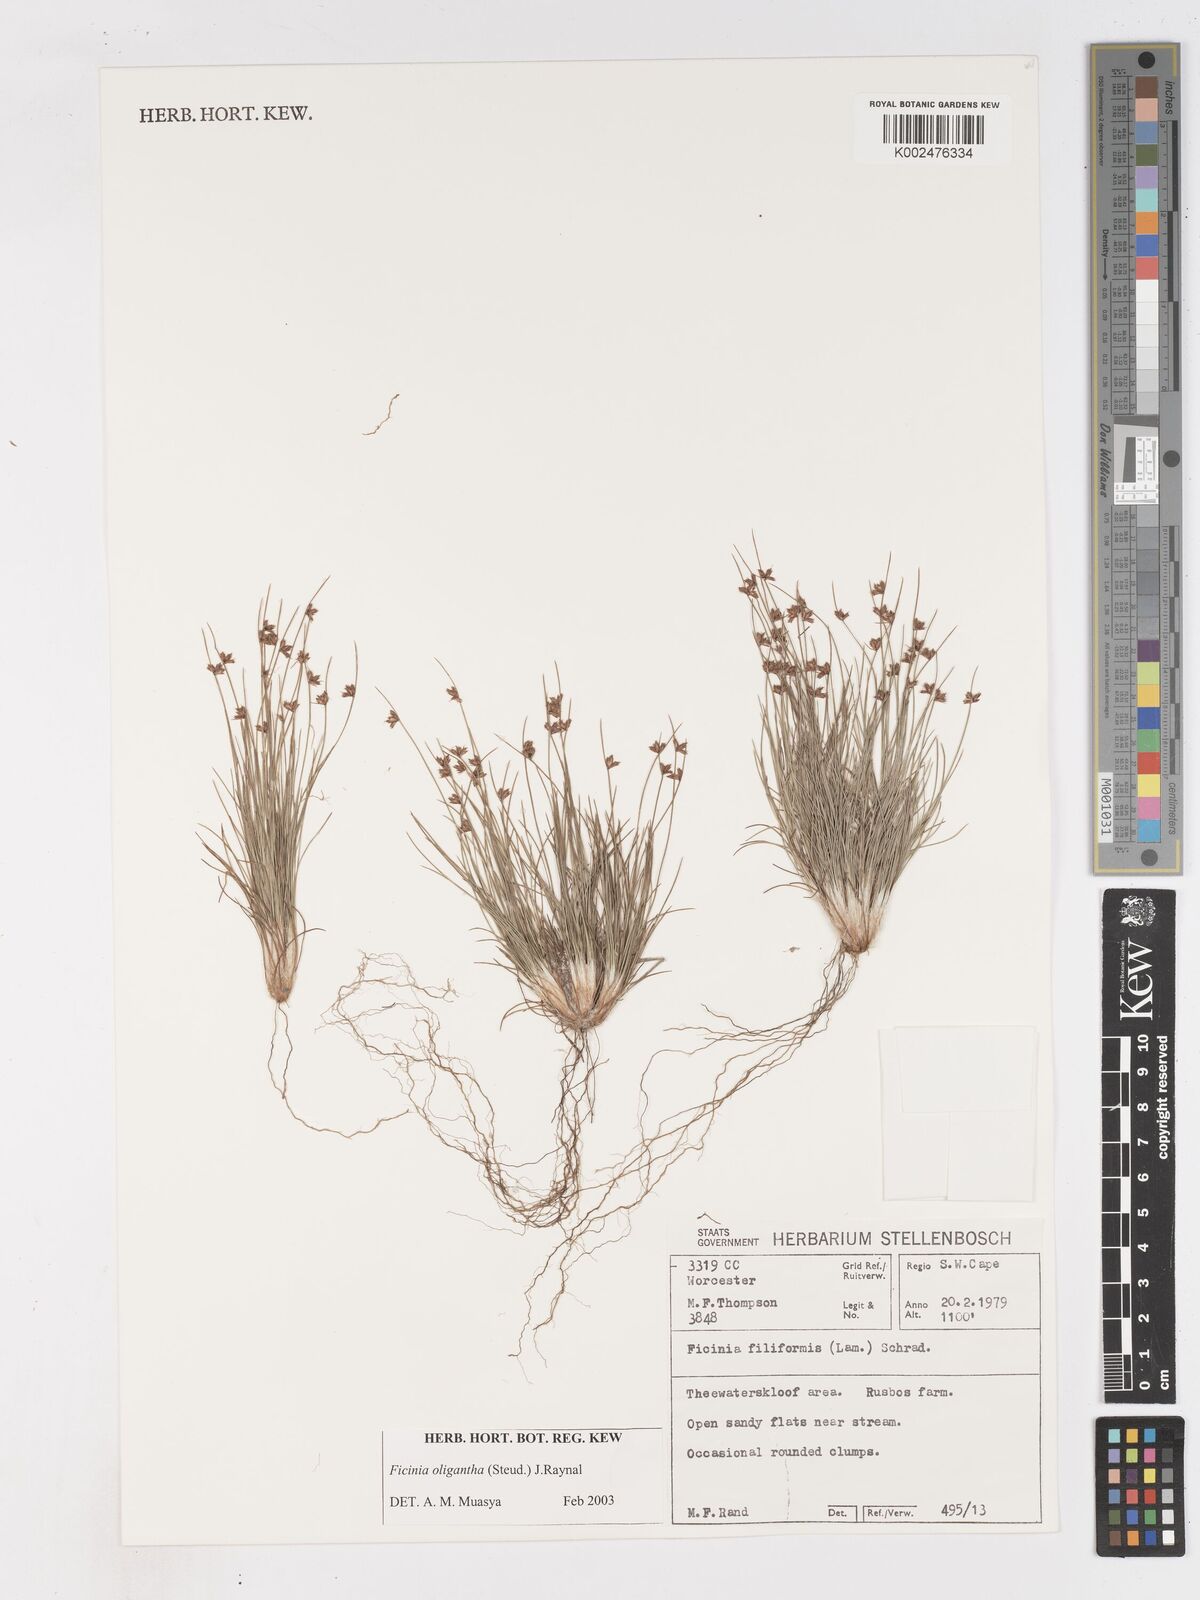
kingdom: Plantae
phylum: Tracheophyta
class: Liliopsida
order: Poales
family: Cyperaceae
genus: Ficinia
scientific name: Ficinia oligantha
